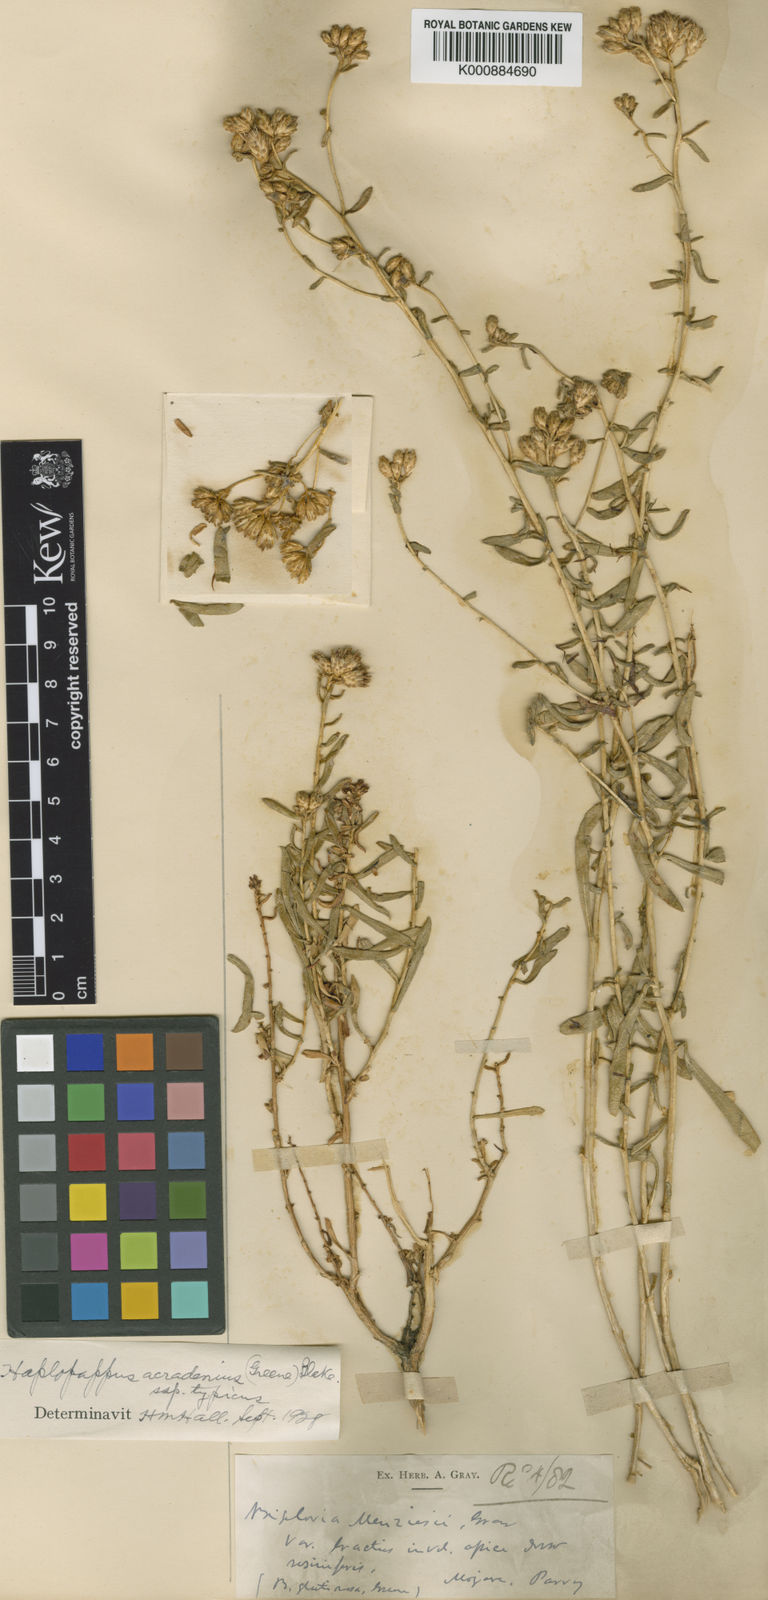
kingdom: Plantae
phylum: Tracheophyta
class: Magnoliopsida
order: Asterales
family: Asteraceae
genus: Isocoma
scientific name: Isocoma acradenia
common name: Alkali jimmyweed
